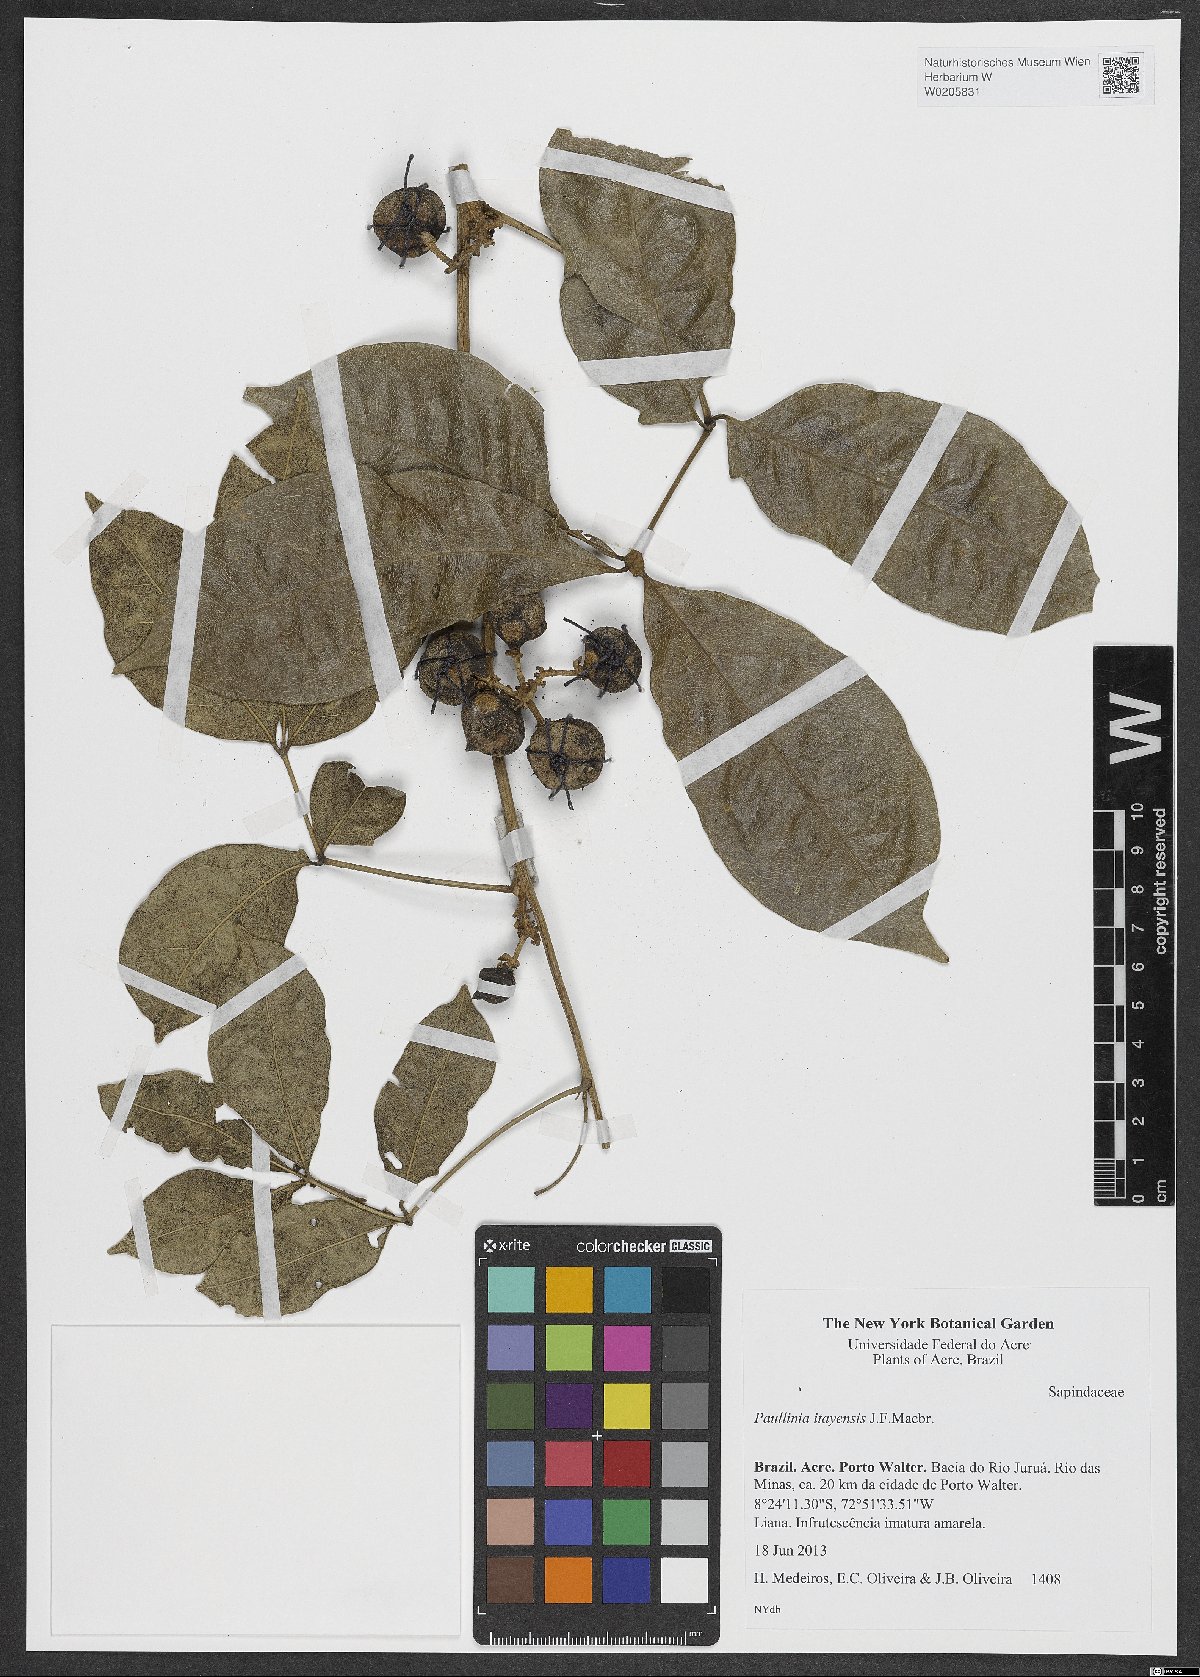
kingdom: Plantae
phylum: Tracheophyta
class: Magnoliopsida
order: Sapindales
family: Sapindaceae
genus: Paullinia
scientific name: Paullinia reticulata
